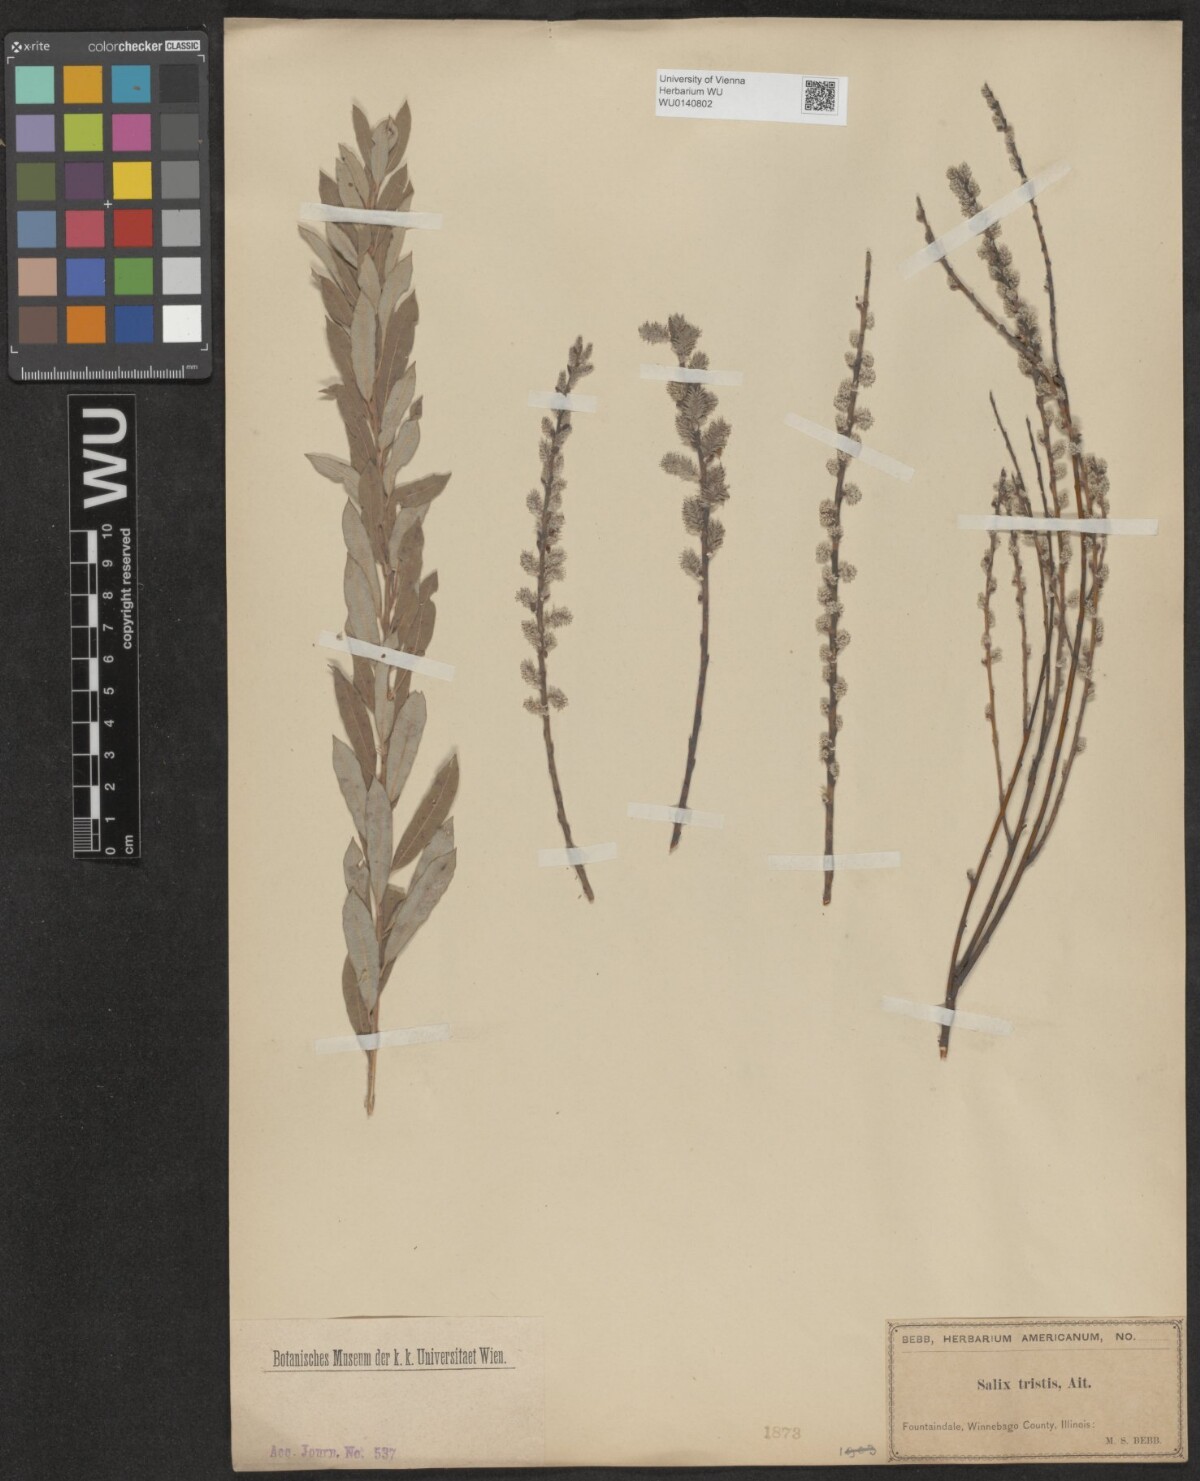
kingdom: Plantae
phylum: Tracheophyta
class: Magnoliopsida
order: Malpighiales
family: Salicaceae
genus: Salix
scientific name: Salix humilis
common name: Prairie willow
